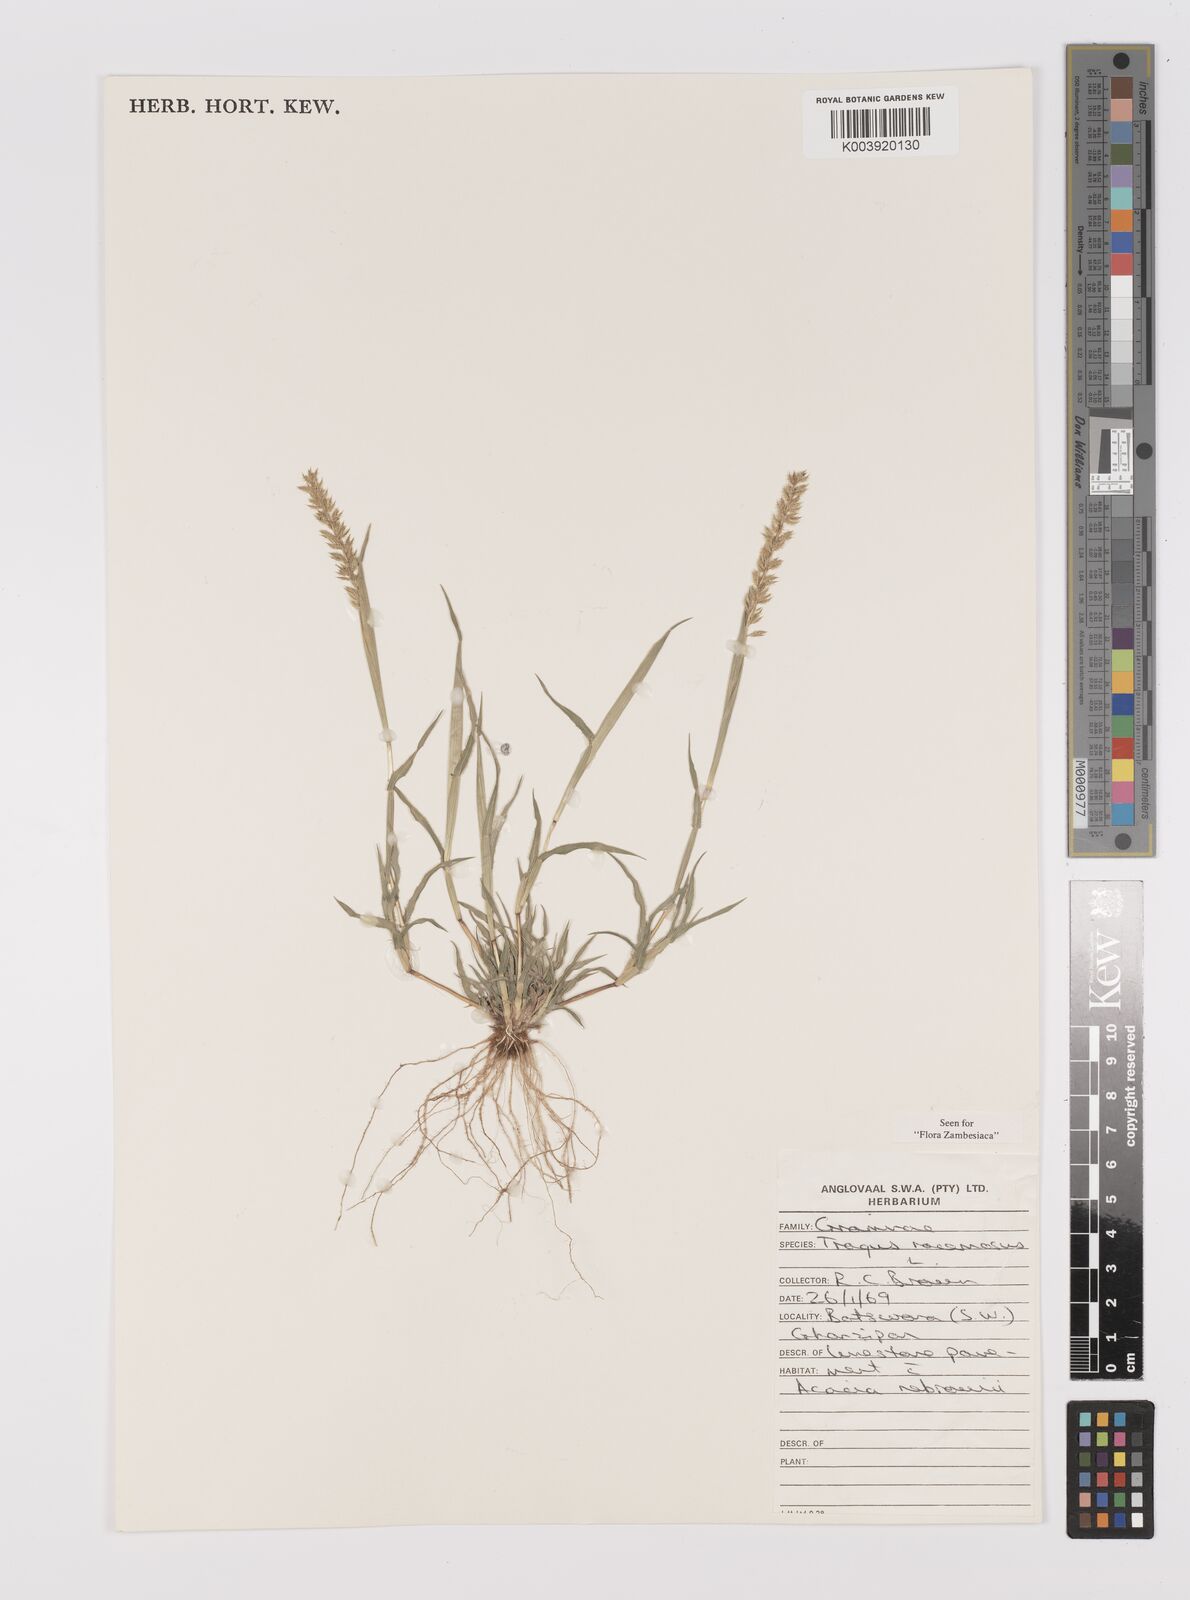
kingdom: Plantae
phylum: Tracheophyta
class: Liliopsida
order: Poales
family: Poaceae
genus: Tragus
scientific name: Tragus racemosus
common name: European bur-grass
